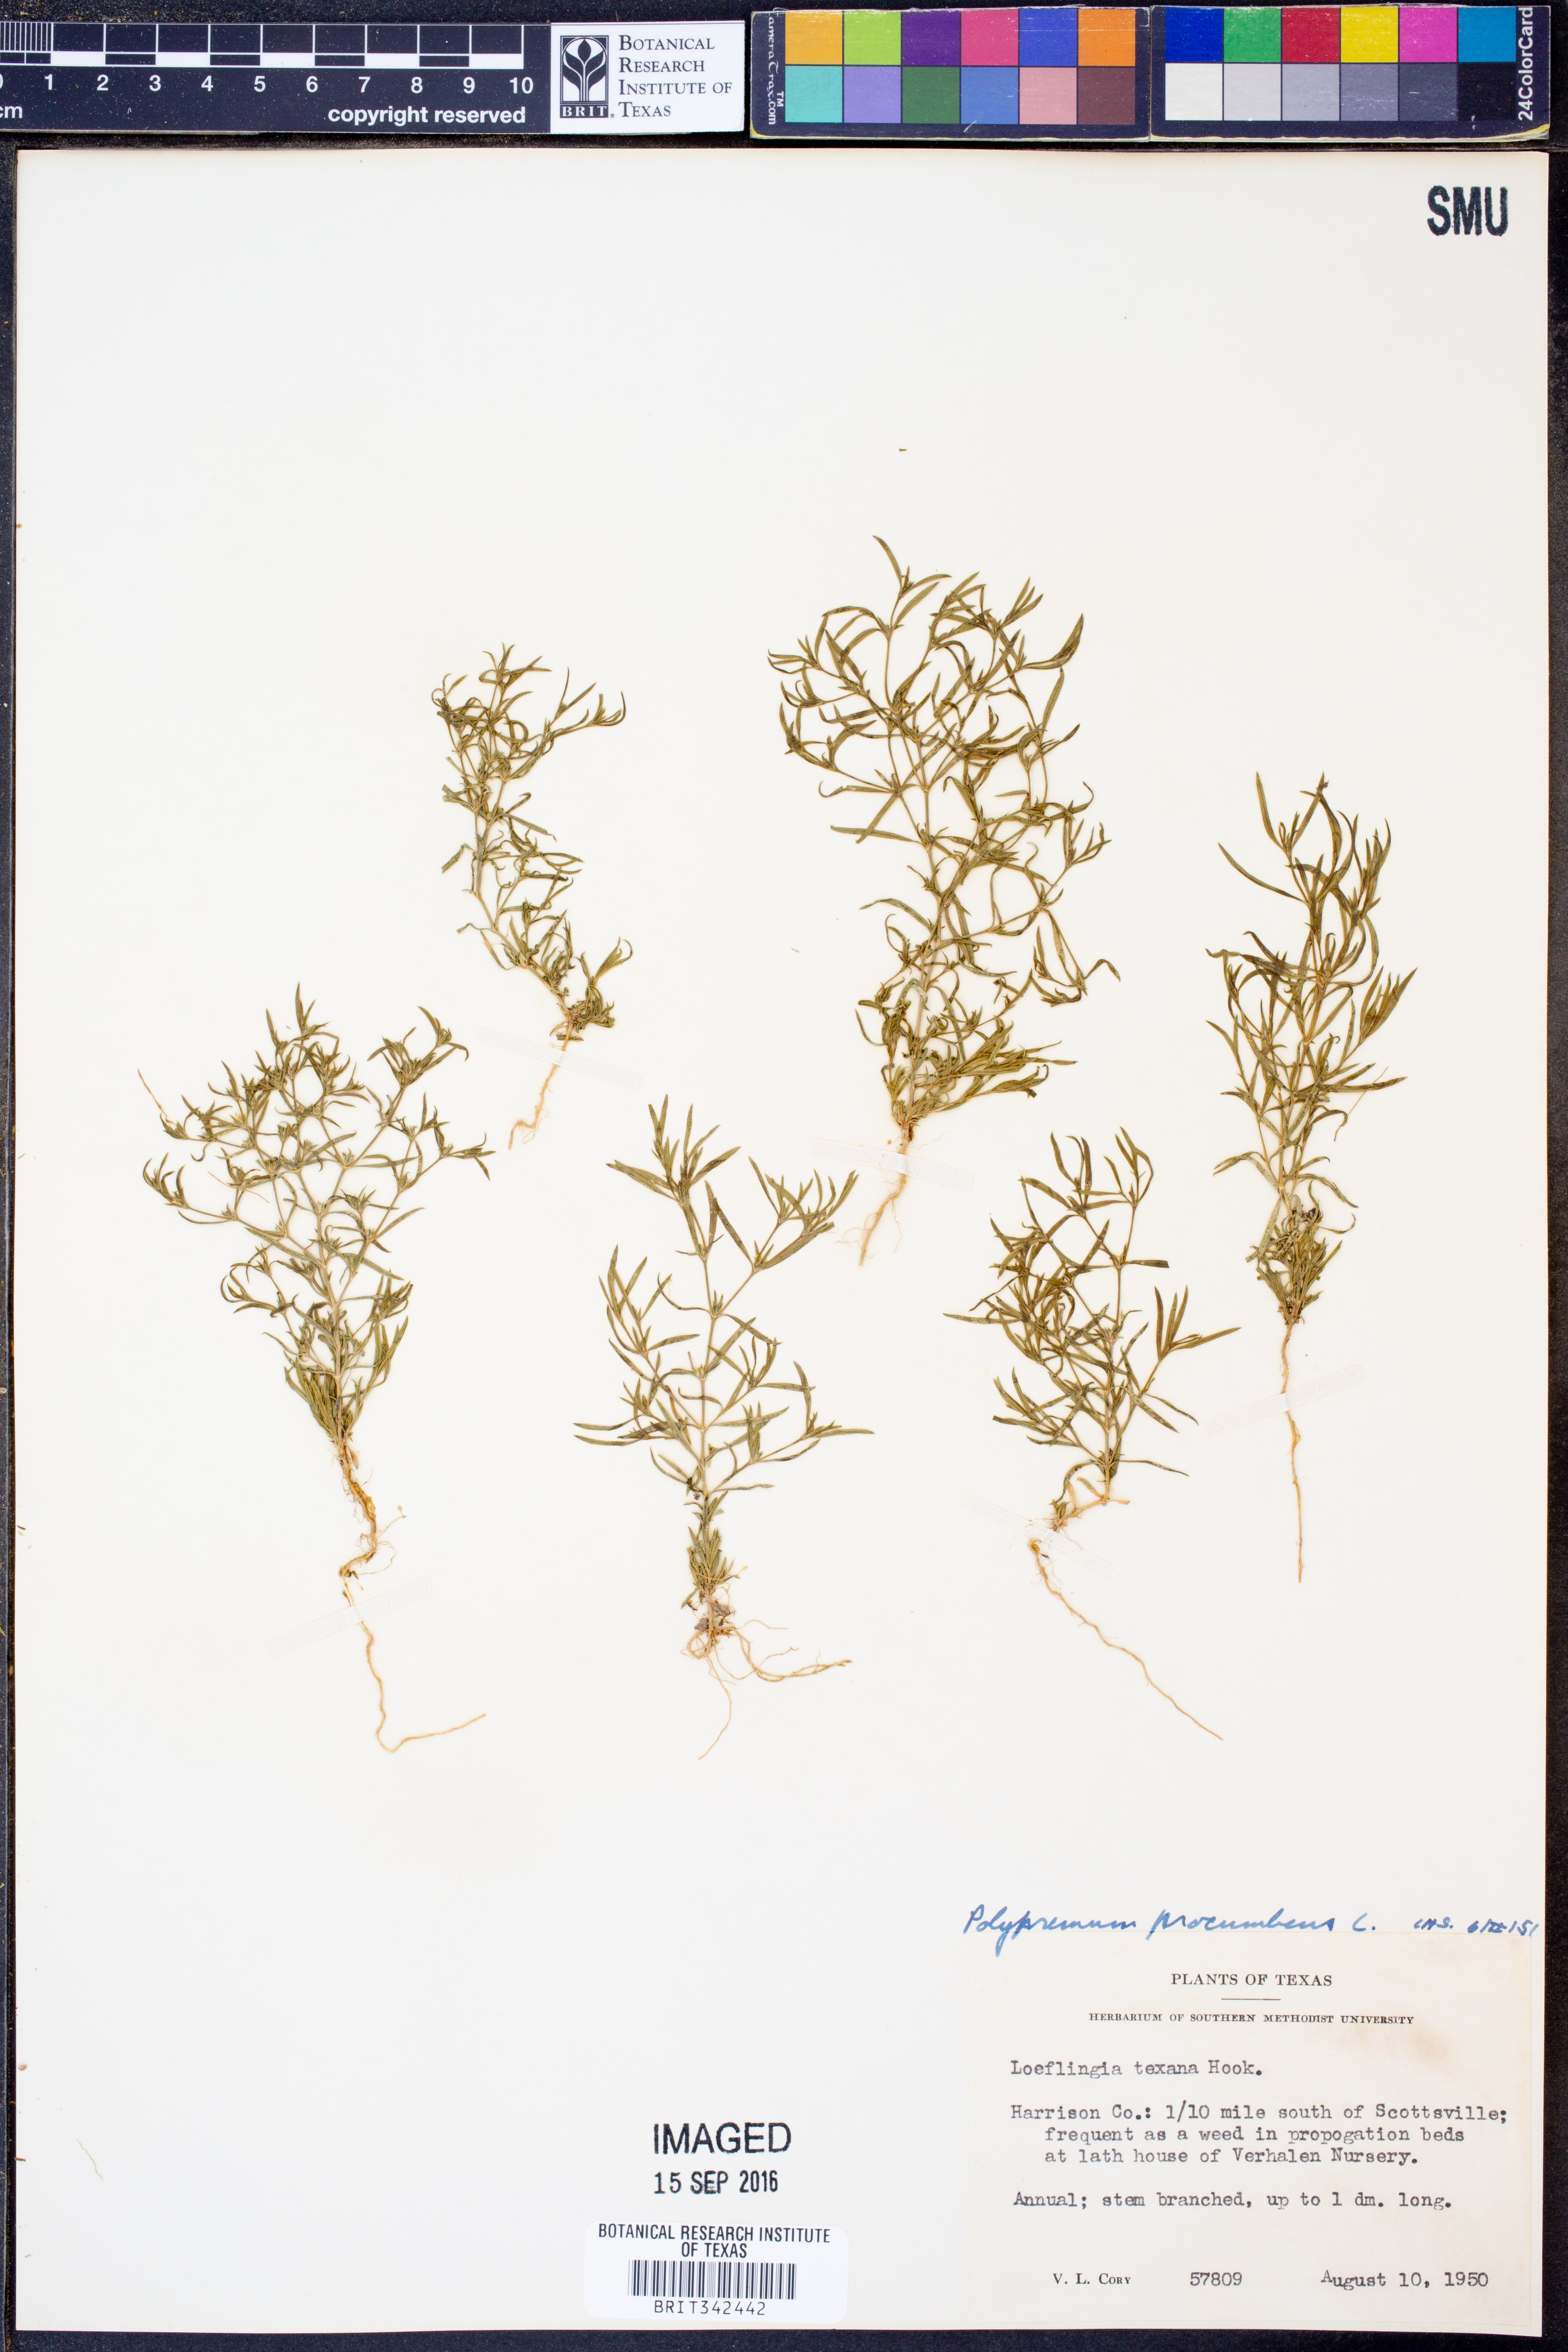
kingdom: Plantae
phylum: Tracheophyta
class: Magnoliopsida
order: Lamiales
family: Tetrachondraceae
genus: Polypremum
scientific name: Polypremum procumbens
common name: Juniper-leaf
